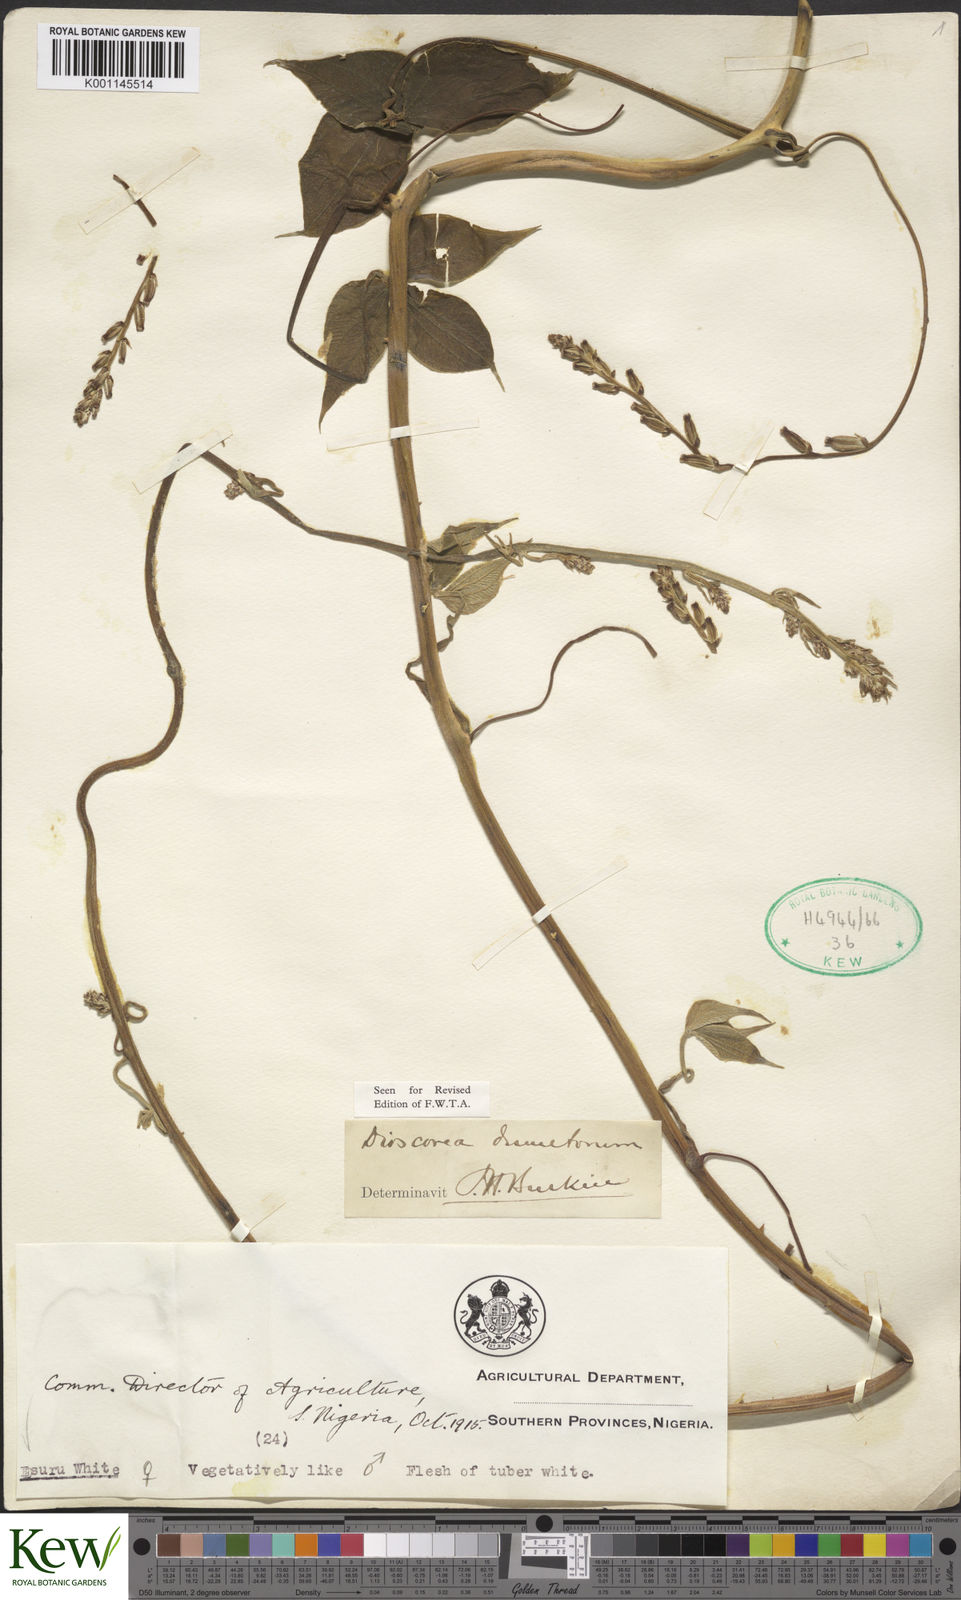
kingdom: Plantae
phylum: Tracheophyta
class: Liliopsida
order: Dioscoreales
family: Dioscoreaceae
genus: Dioscorea
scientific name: Dioscorea dumetorum
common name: African bitter yam
